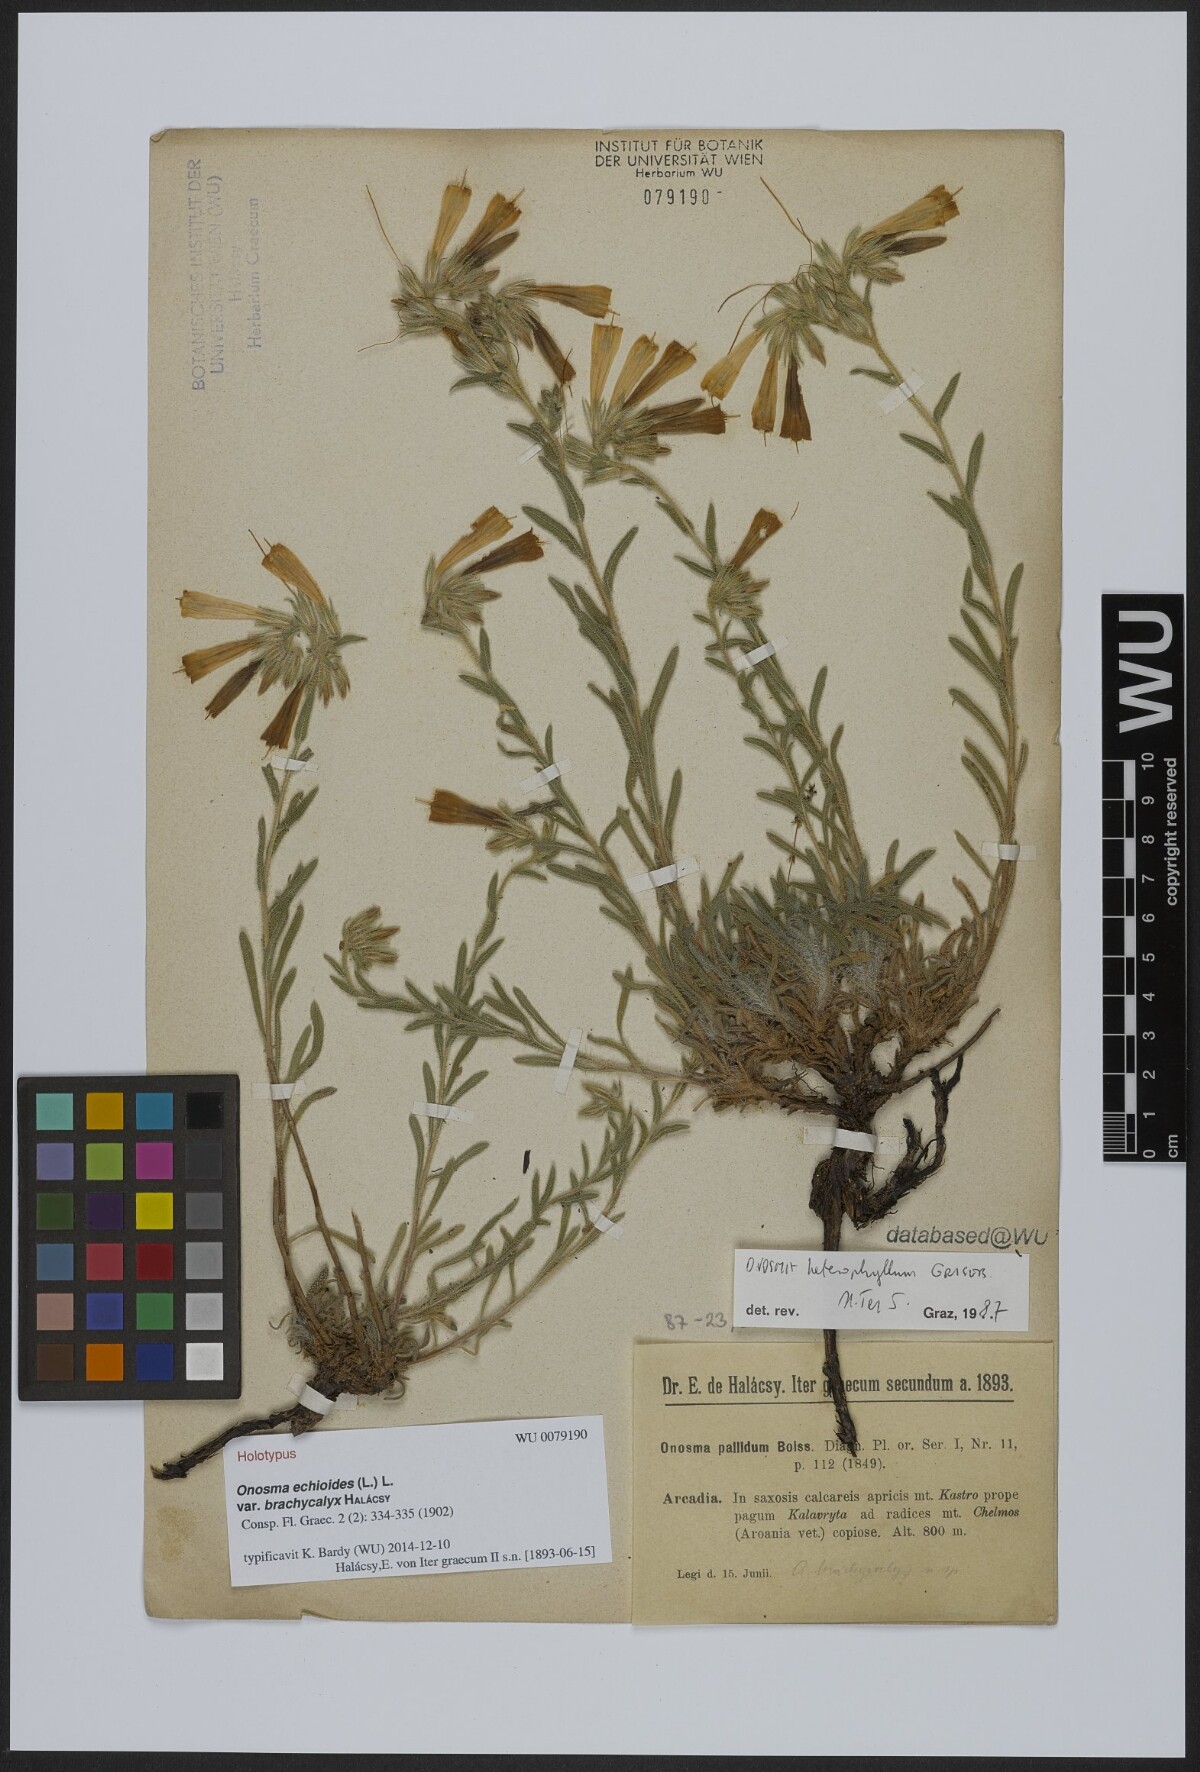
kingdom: Plantae
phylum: Tracheophyta
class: Magnoliopsida
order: Boraginales
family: Boraginaceae
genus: Onosma
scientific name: Onosma heterophylla
